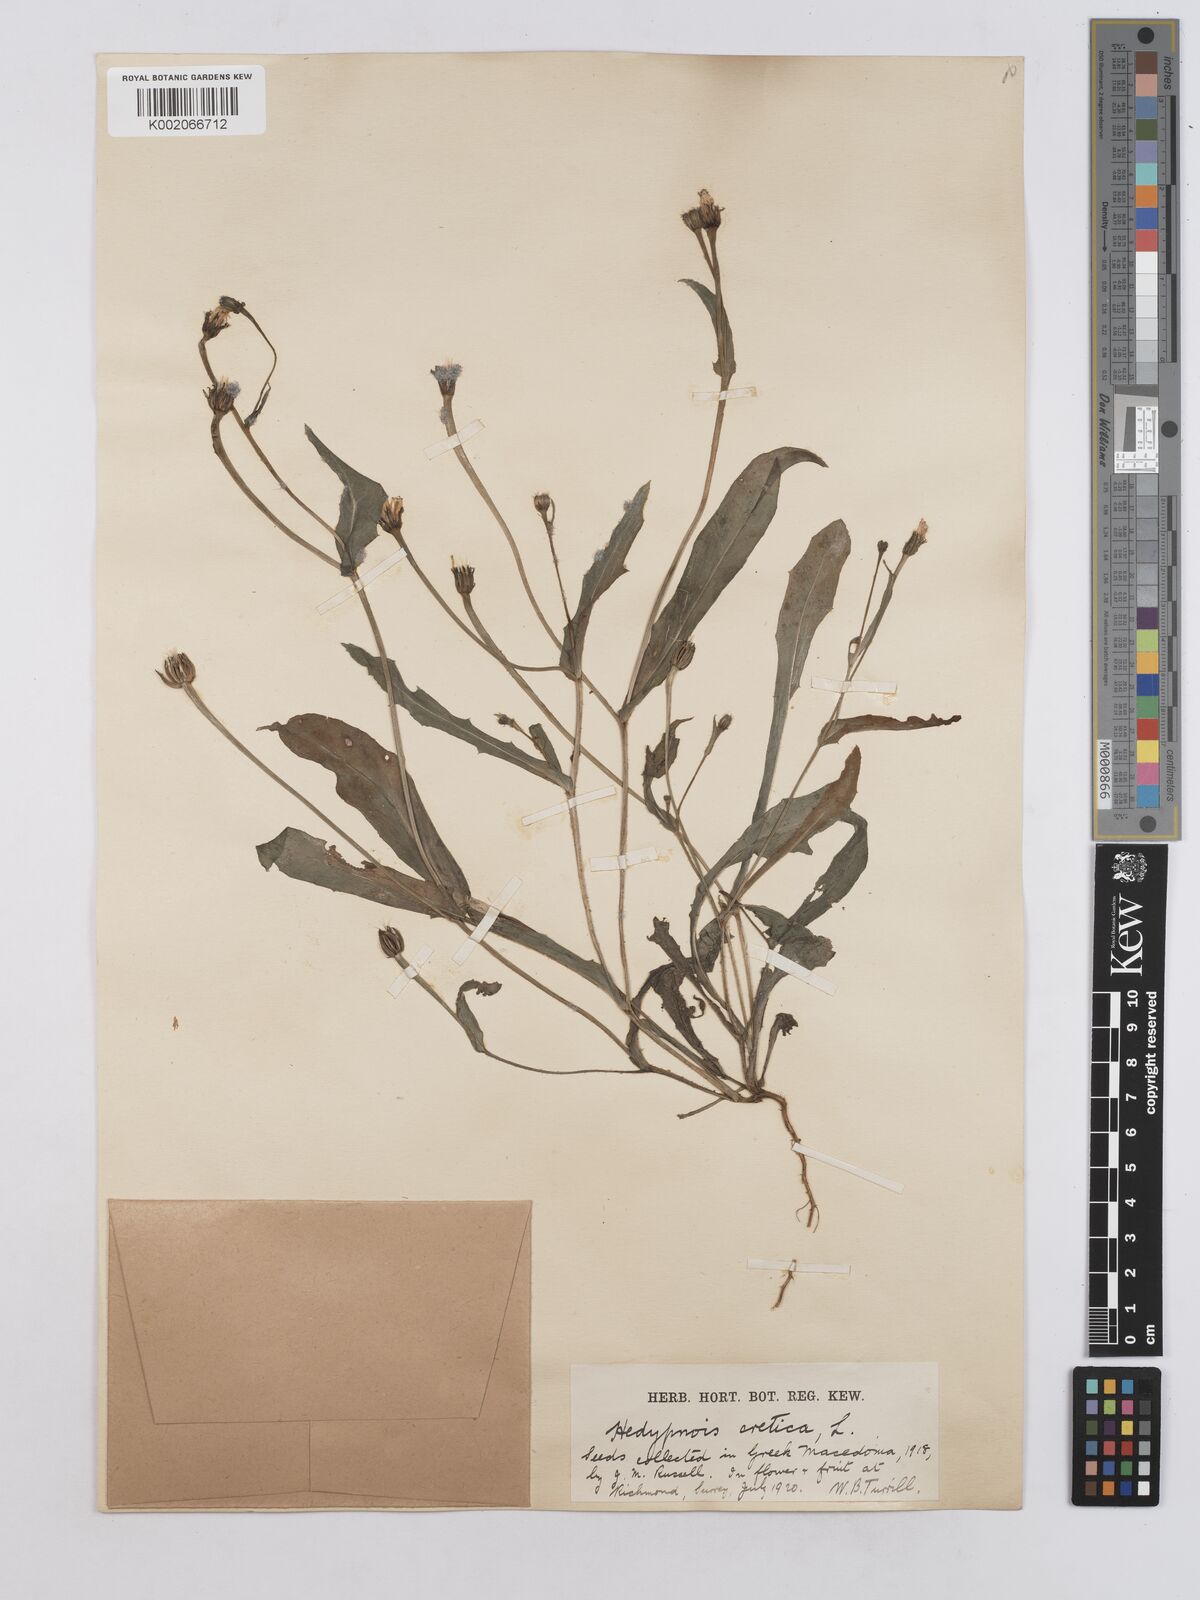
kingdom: Plantae
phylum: Tracheophyta
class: Magnoliopsida
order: Asterales
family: Asteraceae
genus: Hedypnois
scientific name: Hedypnois rhagadioloides
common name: Cretan weed
